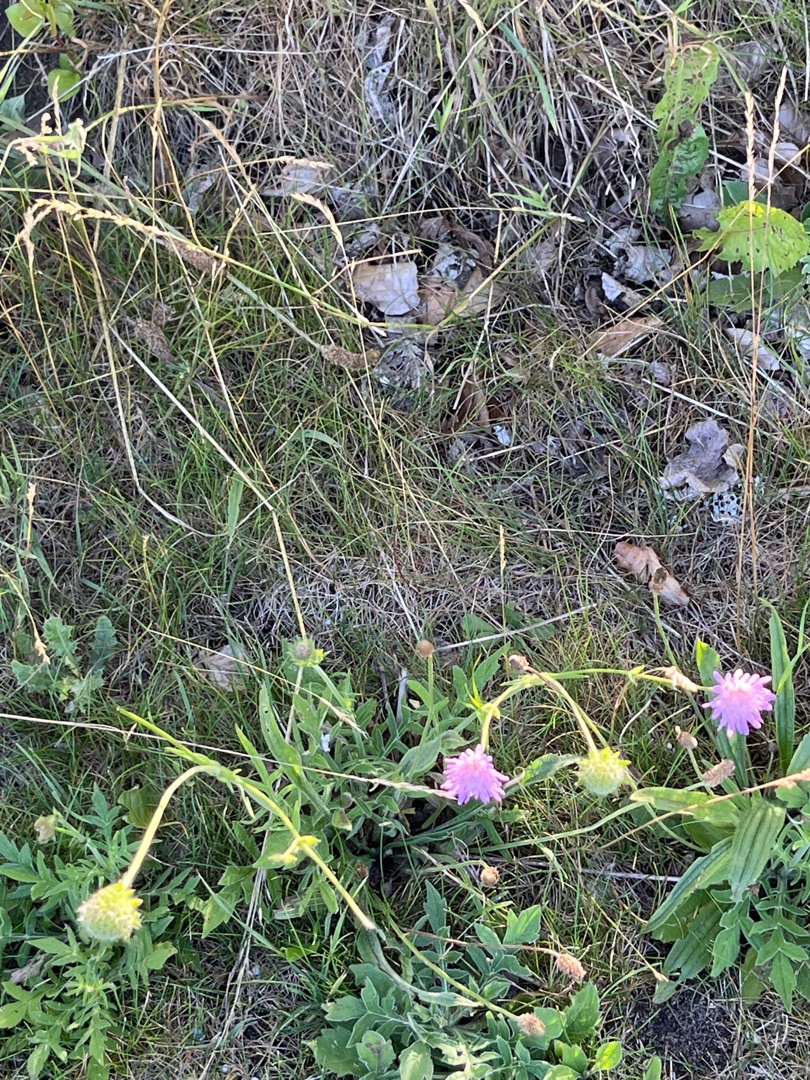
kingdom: Plantae
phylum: Tracheophyta
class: Magnoliopsida
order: Dipsacales
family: Caprifoliaceae
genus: Knautia
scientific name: Knautia arvensis
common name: Blåhat
